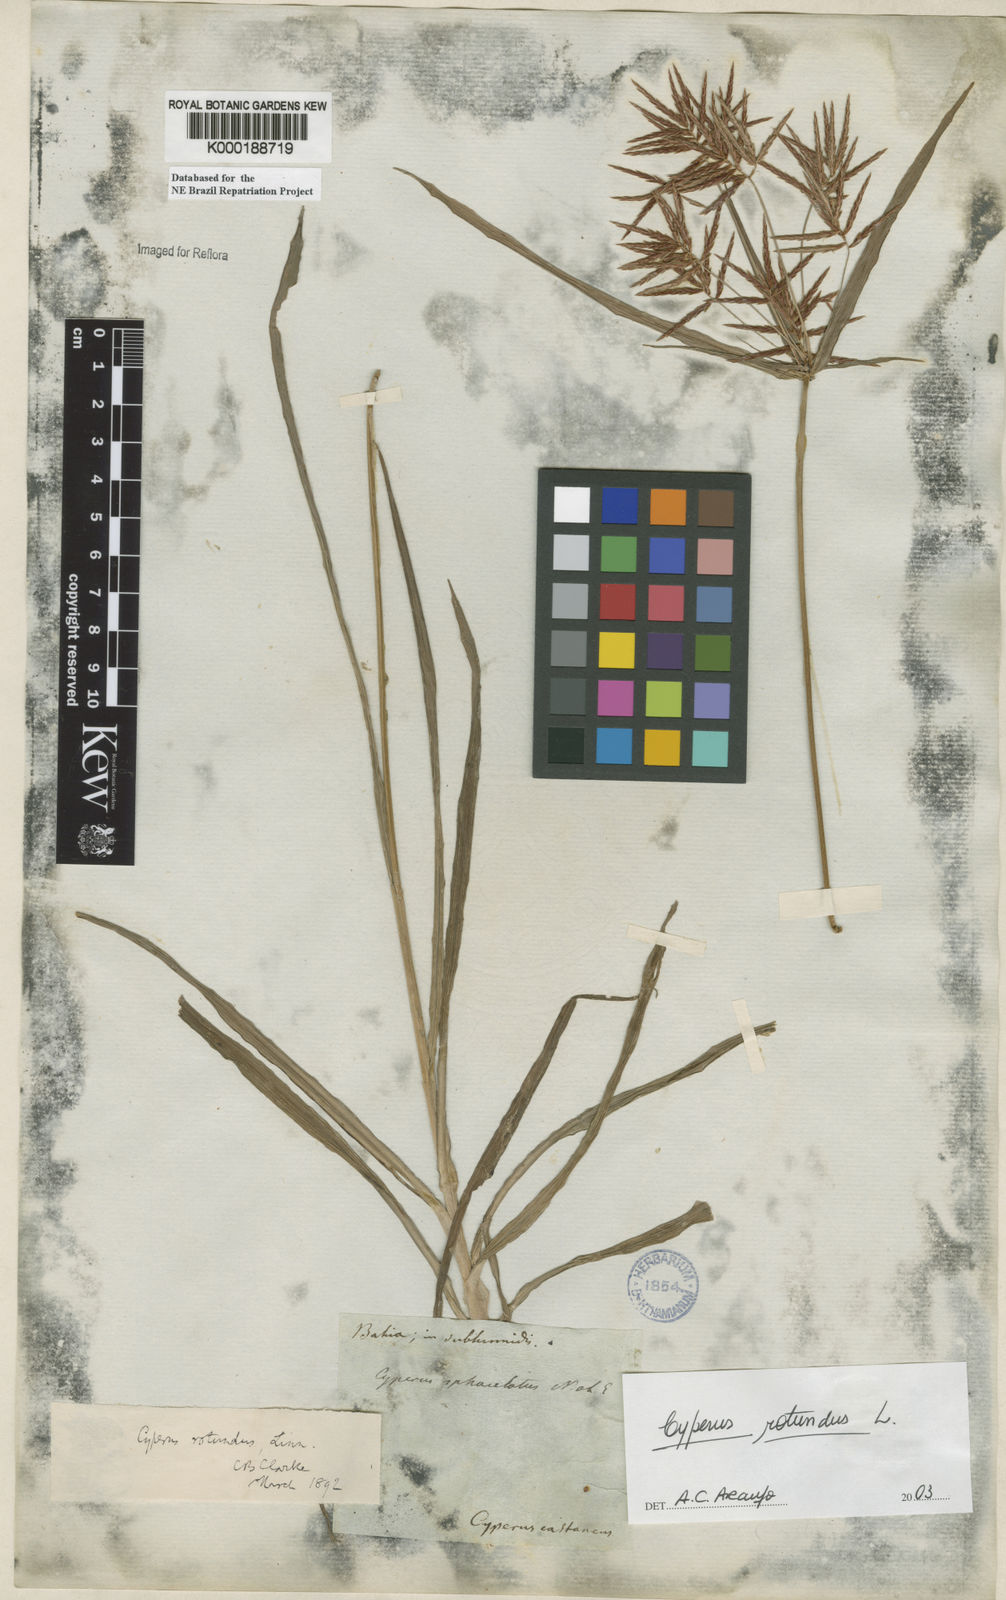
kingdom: Plantae
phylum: Tracheophyta
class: Liliopsida
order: Poales
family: Cyperaceae
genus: Cyperus
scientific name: Cyperus rotundus
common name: Nutgrass
